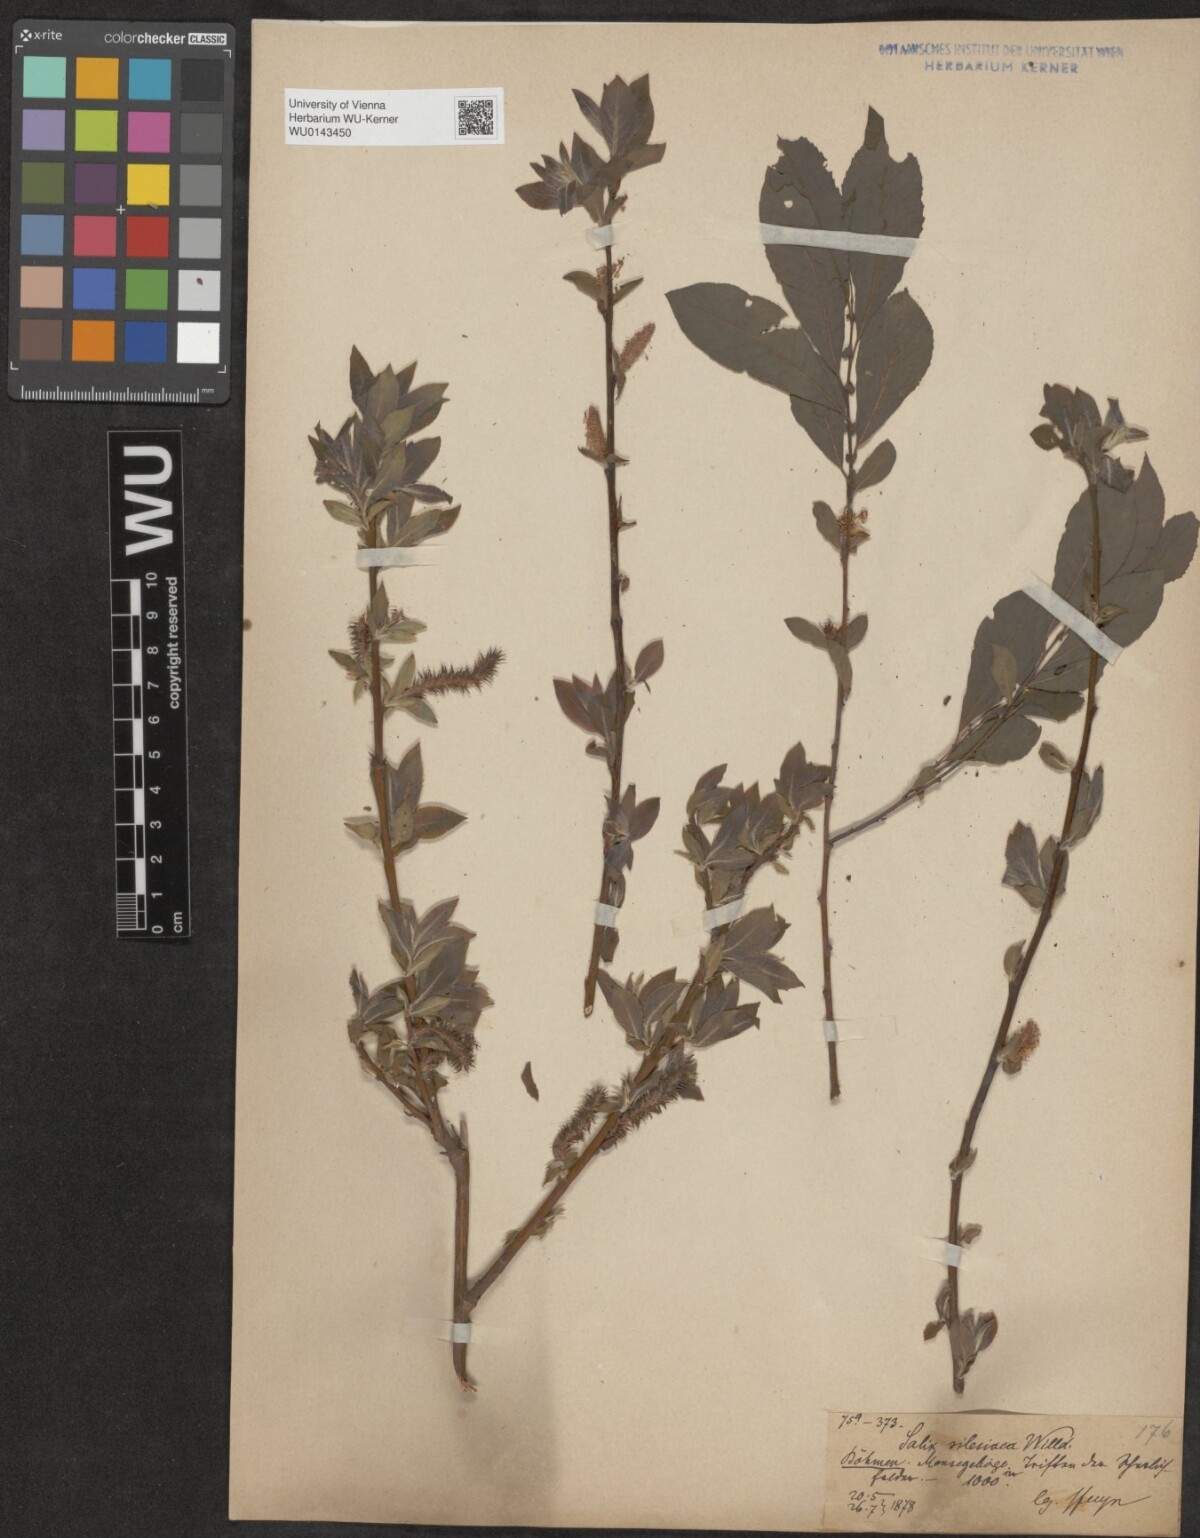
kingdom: Plantae
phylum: Tracheophyta
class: Magnoliopsida
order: Malpighiales
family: Salicaceae
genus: Salix
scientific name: Salix silesiaca
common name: Silesian willow
